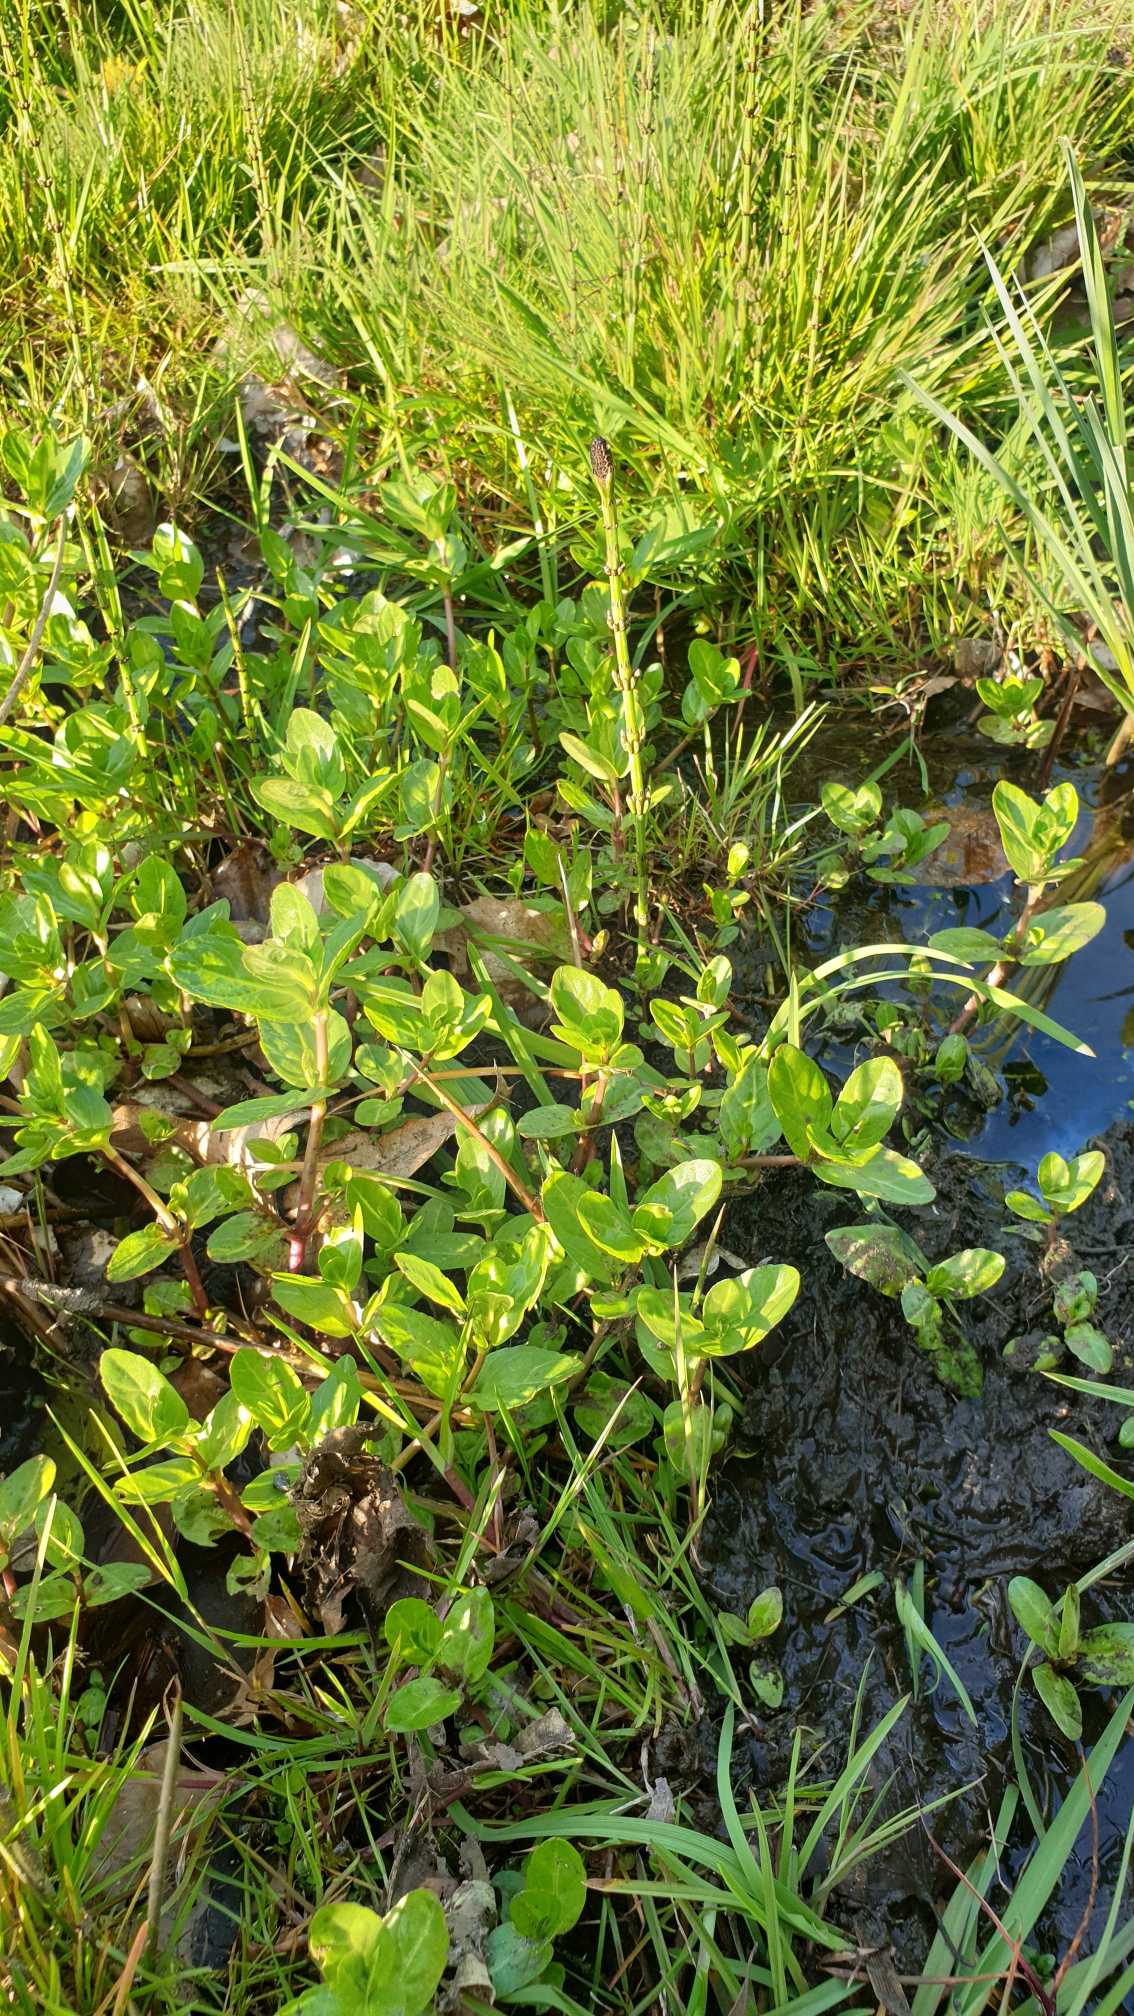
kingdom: Plantae
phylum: Tracheophyta
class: Magnoliopsida
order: Lamiales
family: Plantaginaceae
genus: Veronica
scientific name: Veronica beccabunga
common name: Tykbladet ærenpris
